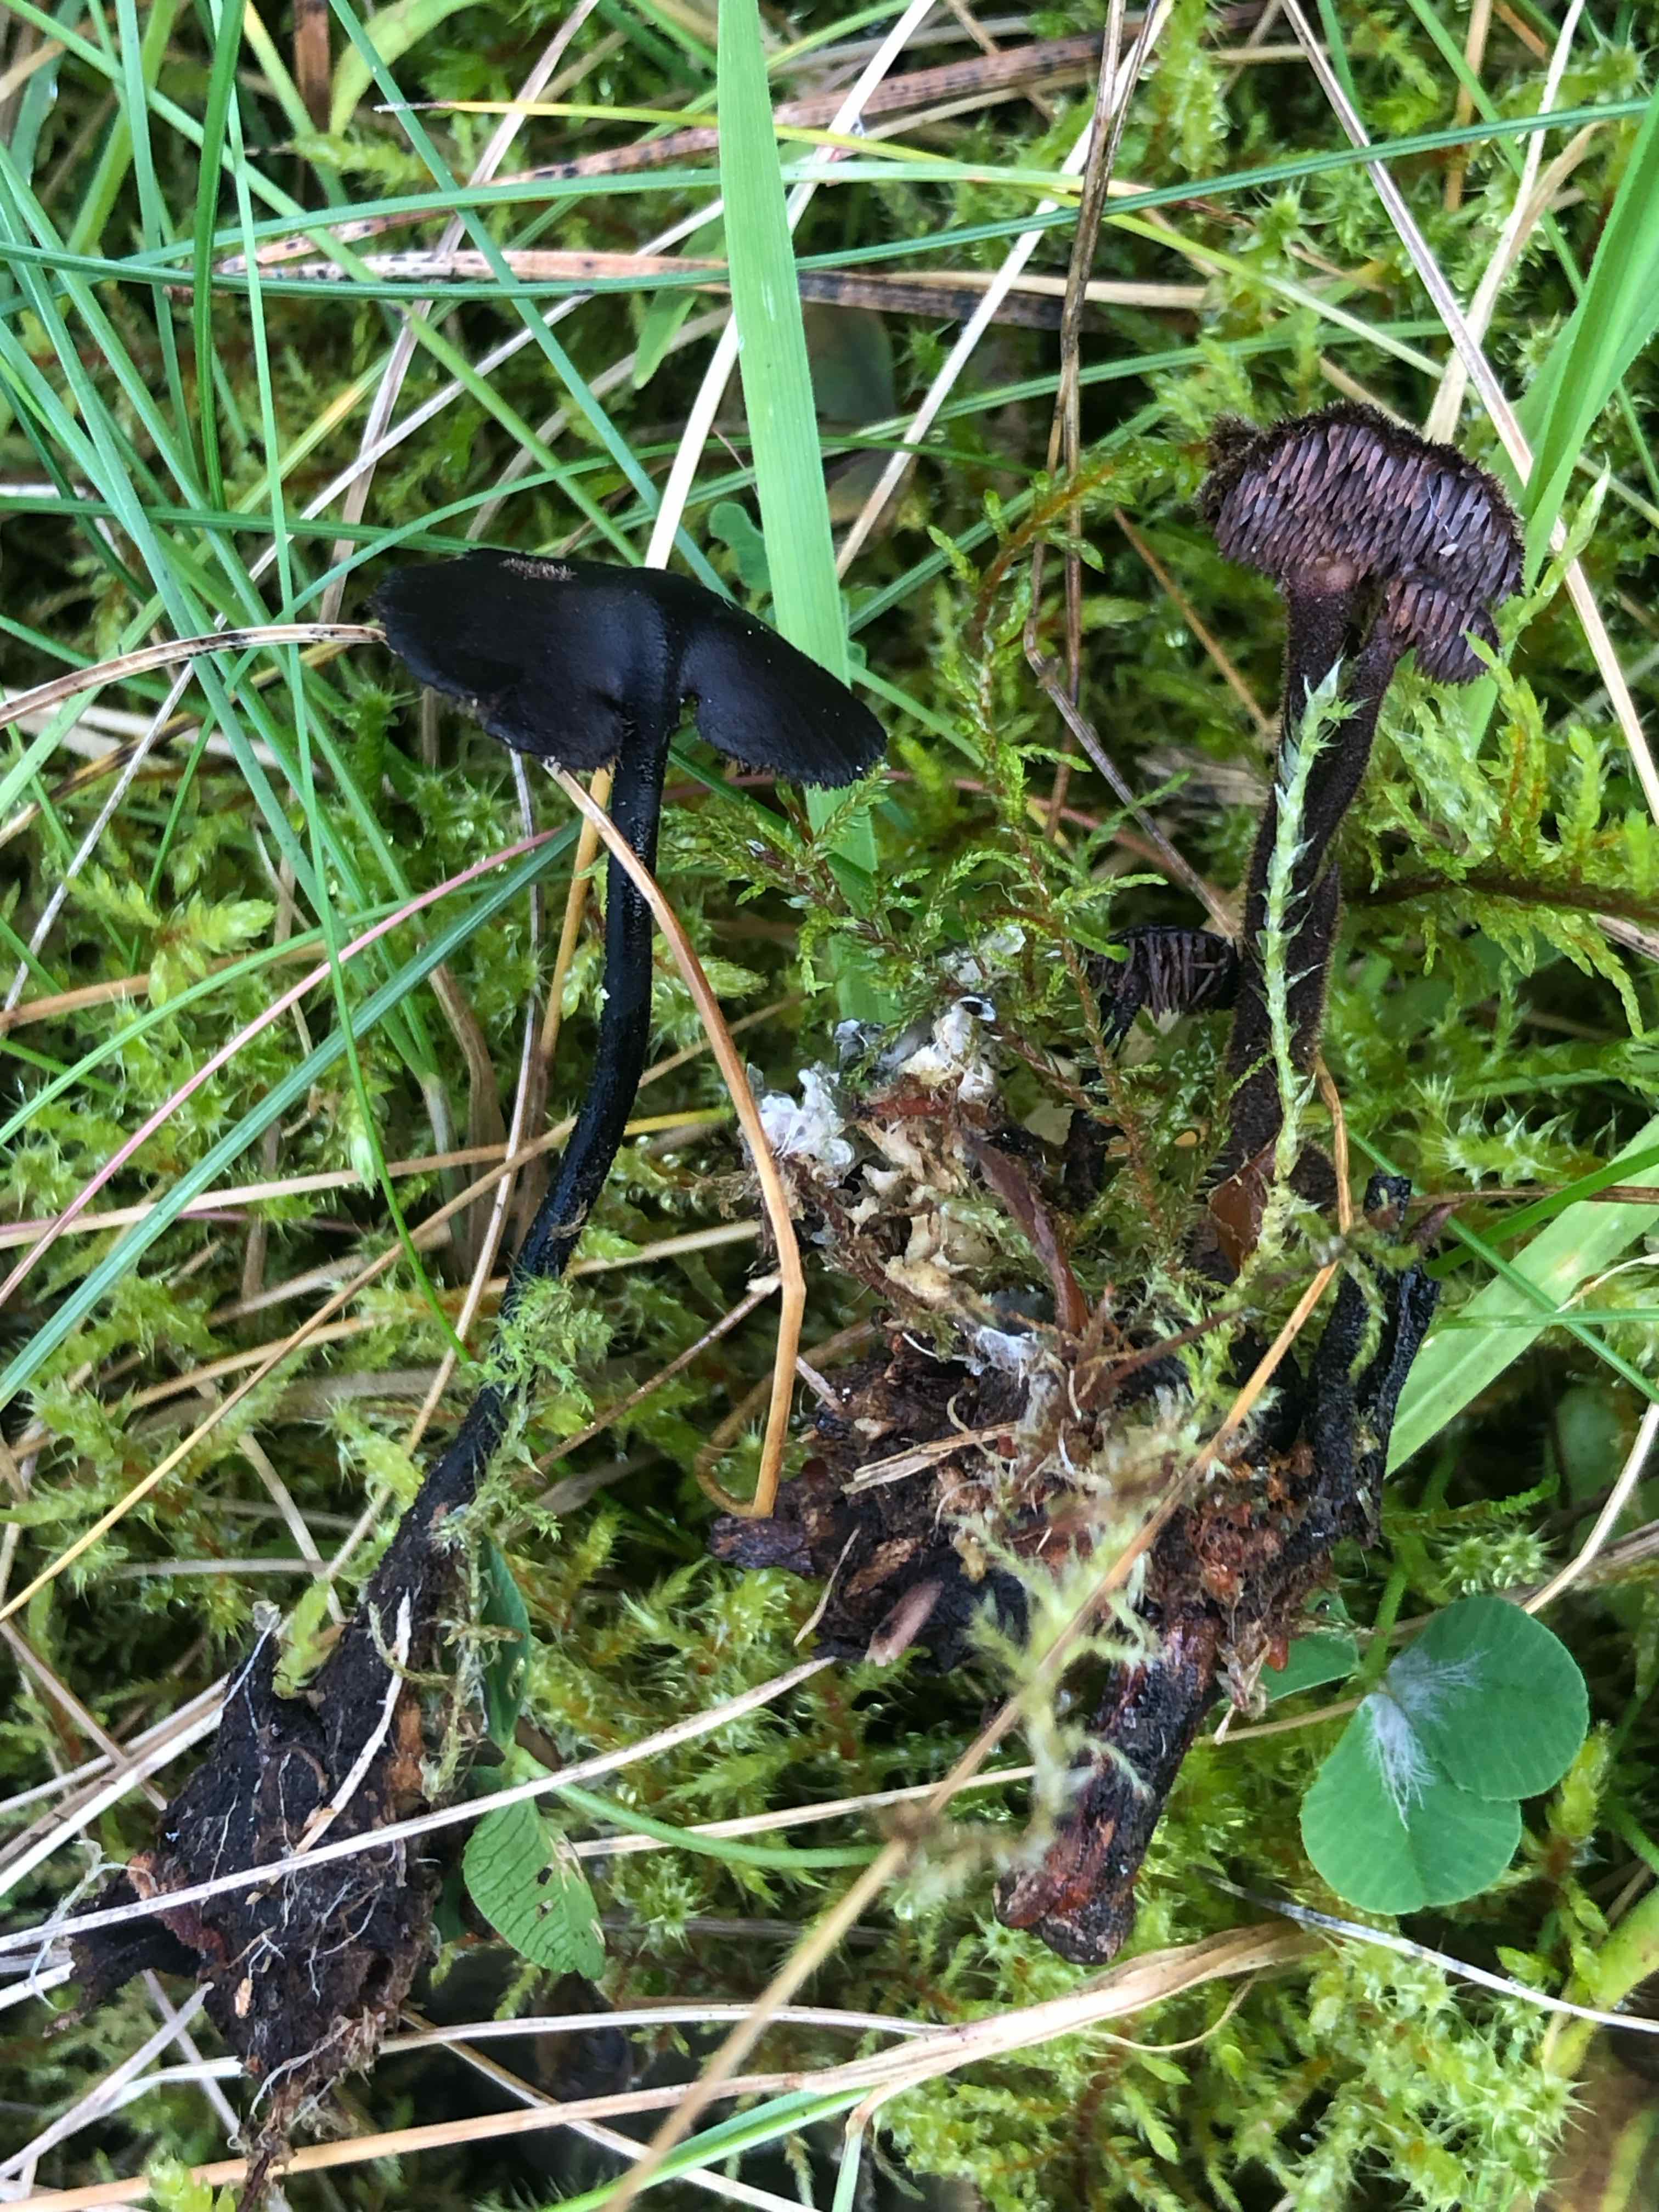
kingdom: Fungi
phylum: Basidiomycota
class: Agaricomycetes
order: Russulales
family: Auriscalpiaceae
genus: Auriscalpium
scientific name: Auriscalpium vulgare
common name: koglepigsvamp
